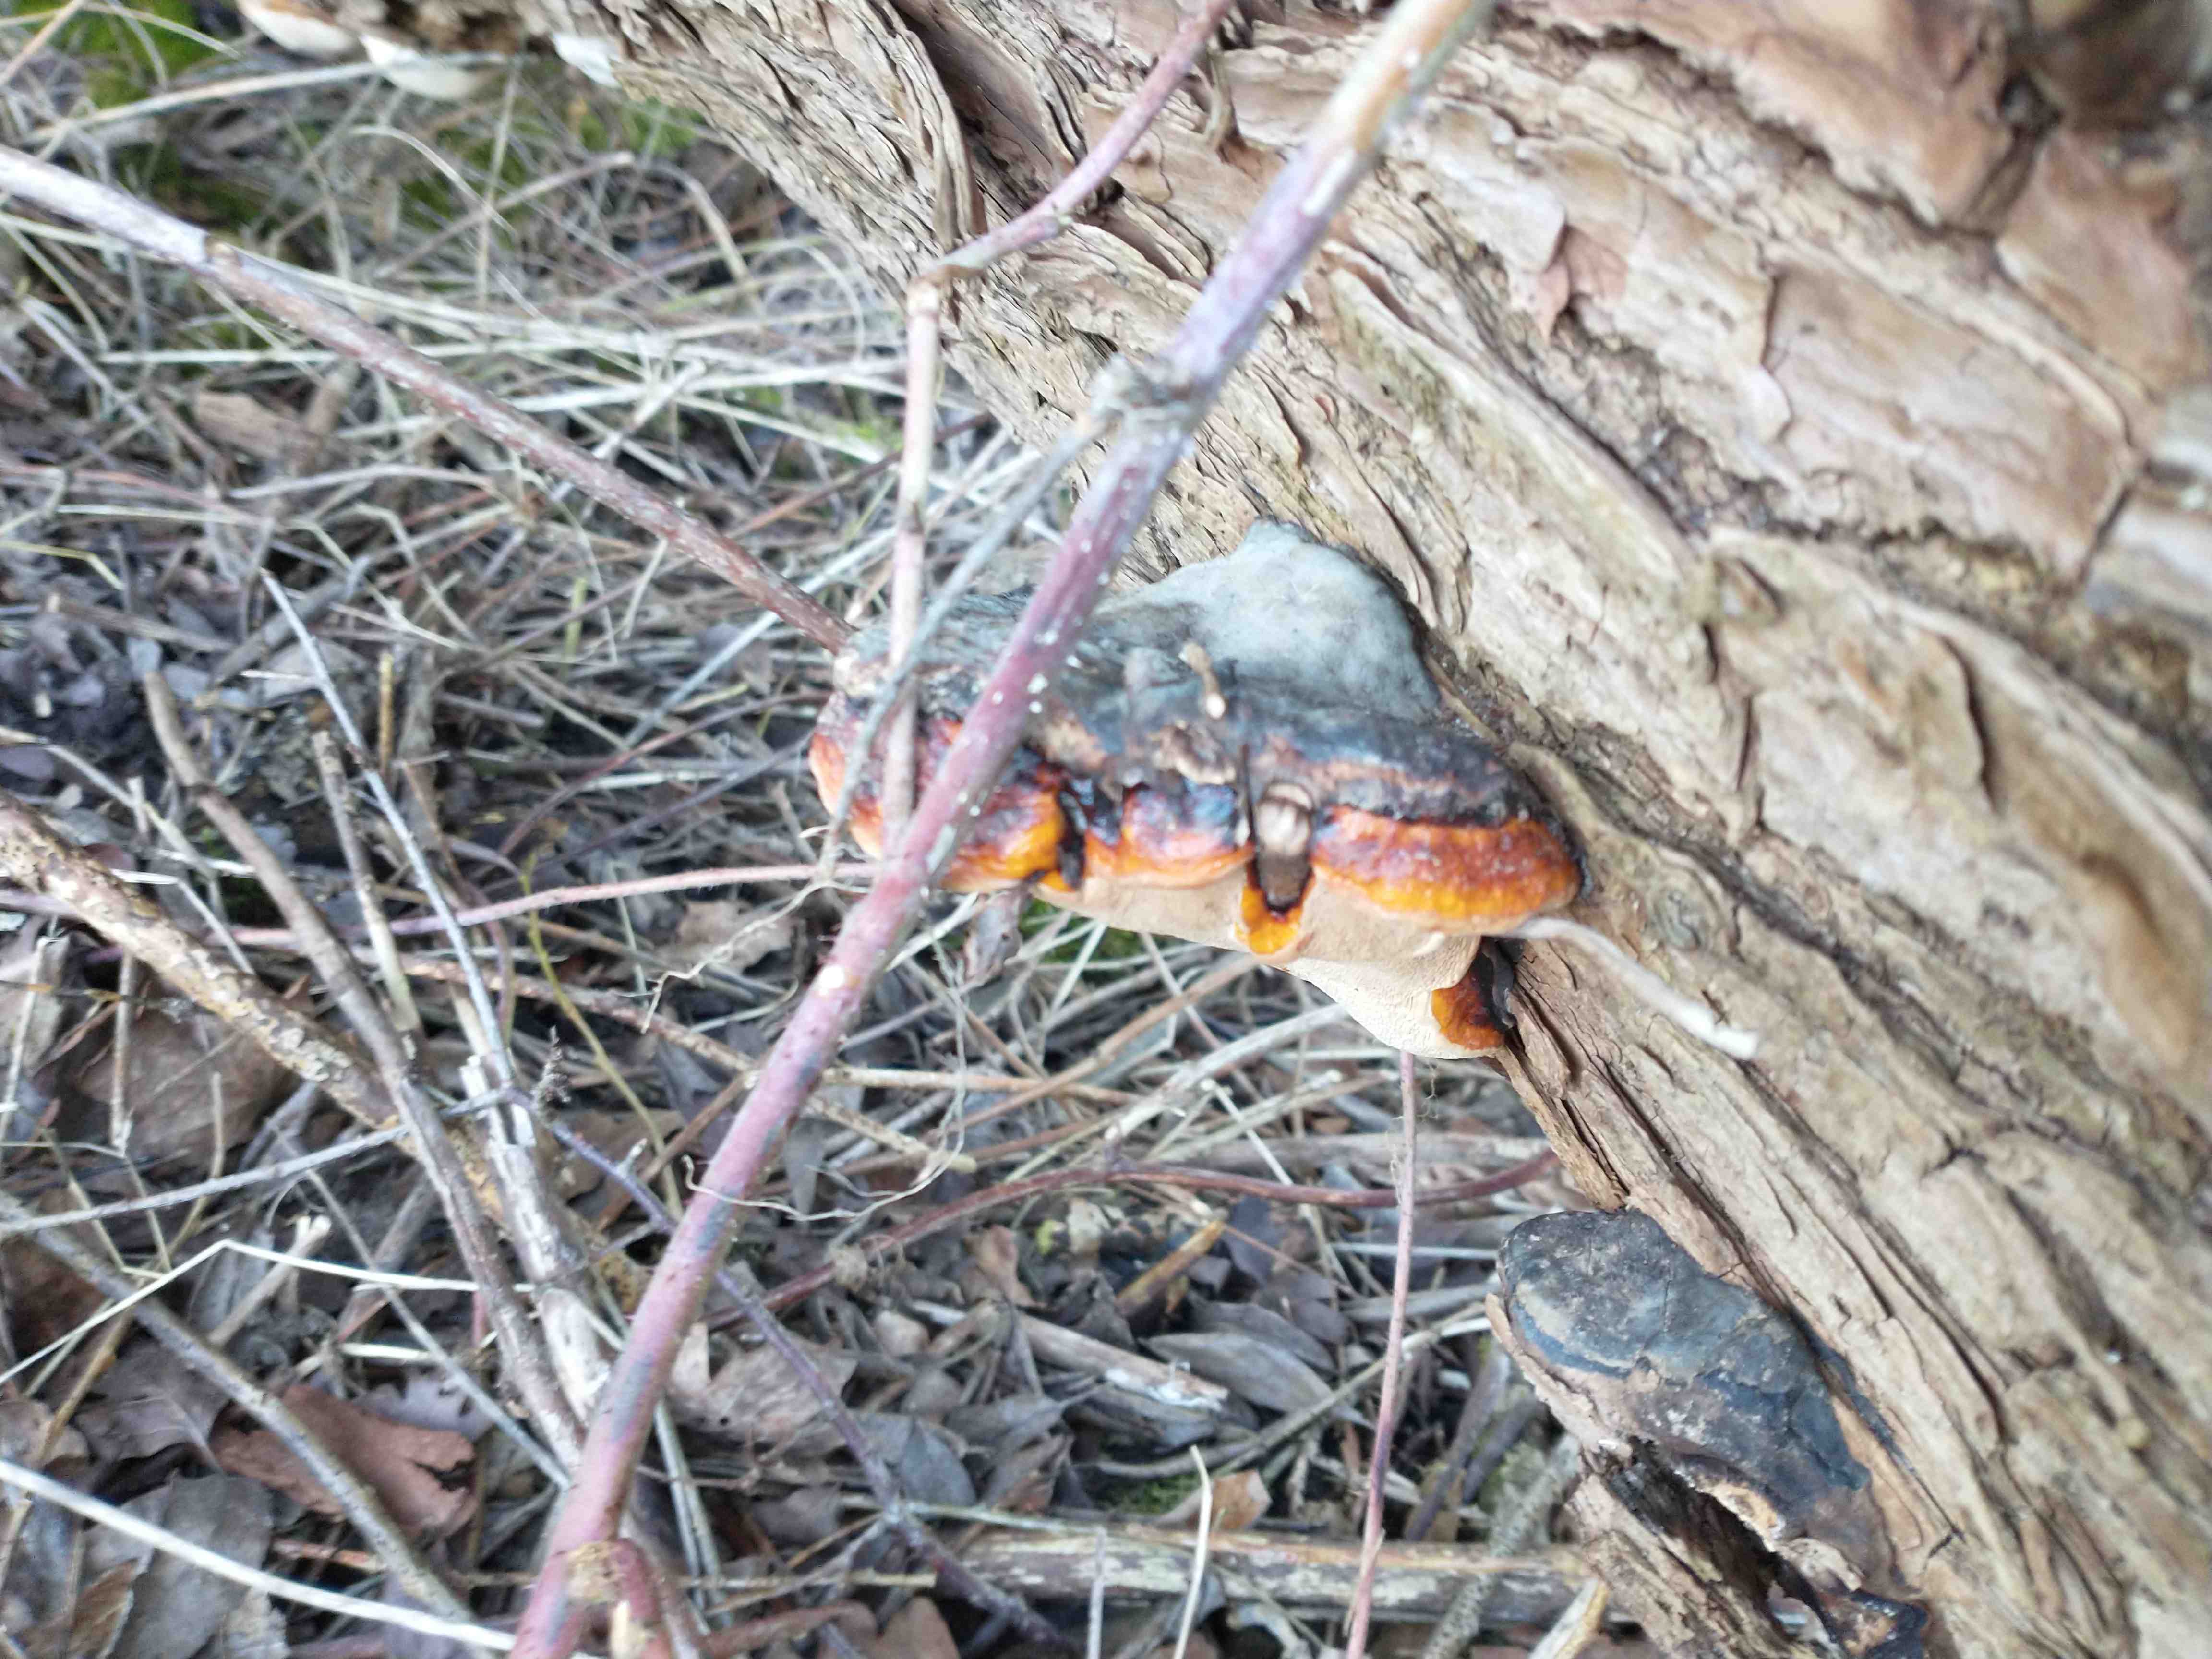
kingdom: Fungi
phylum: Basidiomycota
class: Agaricomycetes
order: Polyporales
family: Fomitopsidaceae
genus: Fomitopsis
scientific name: Fomitopsis pinicola
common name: randbæltet hovporesvamp
